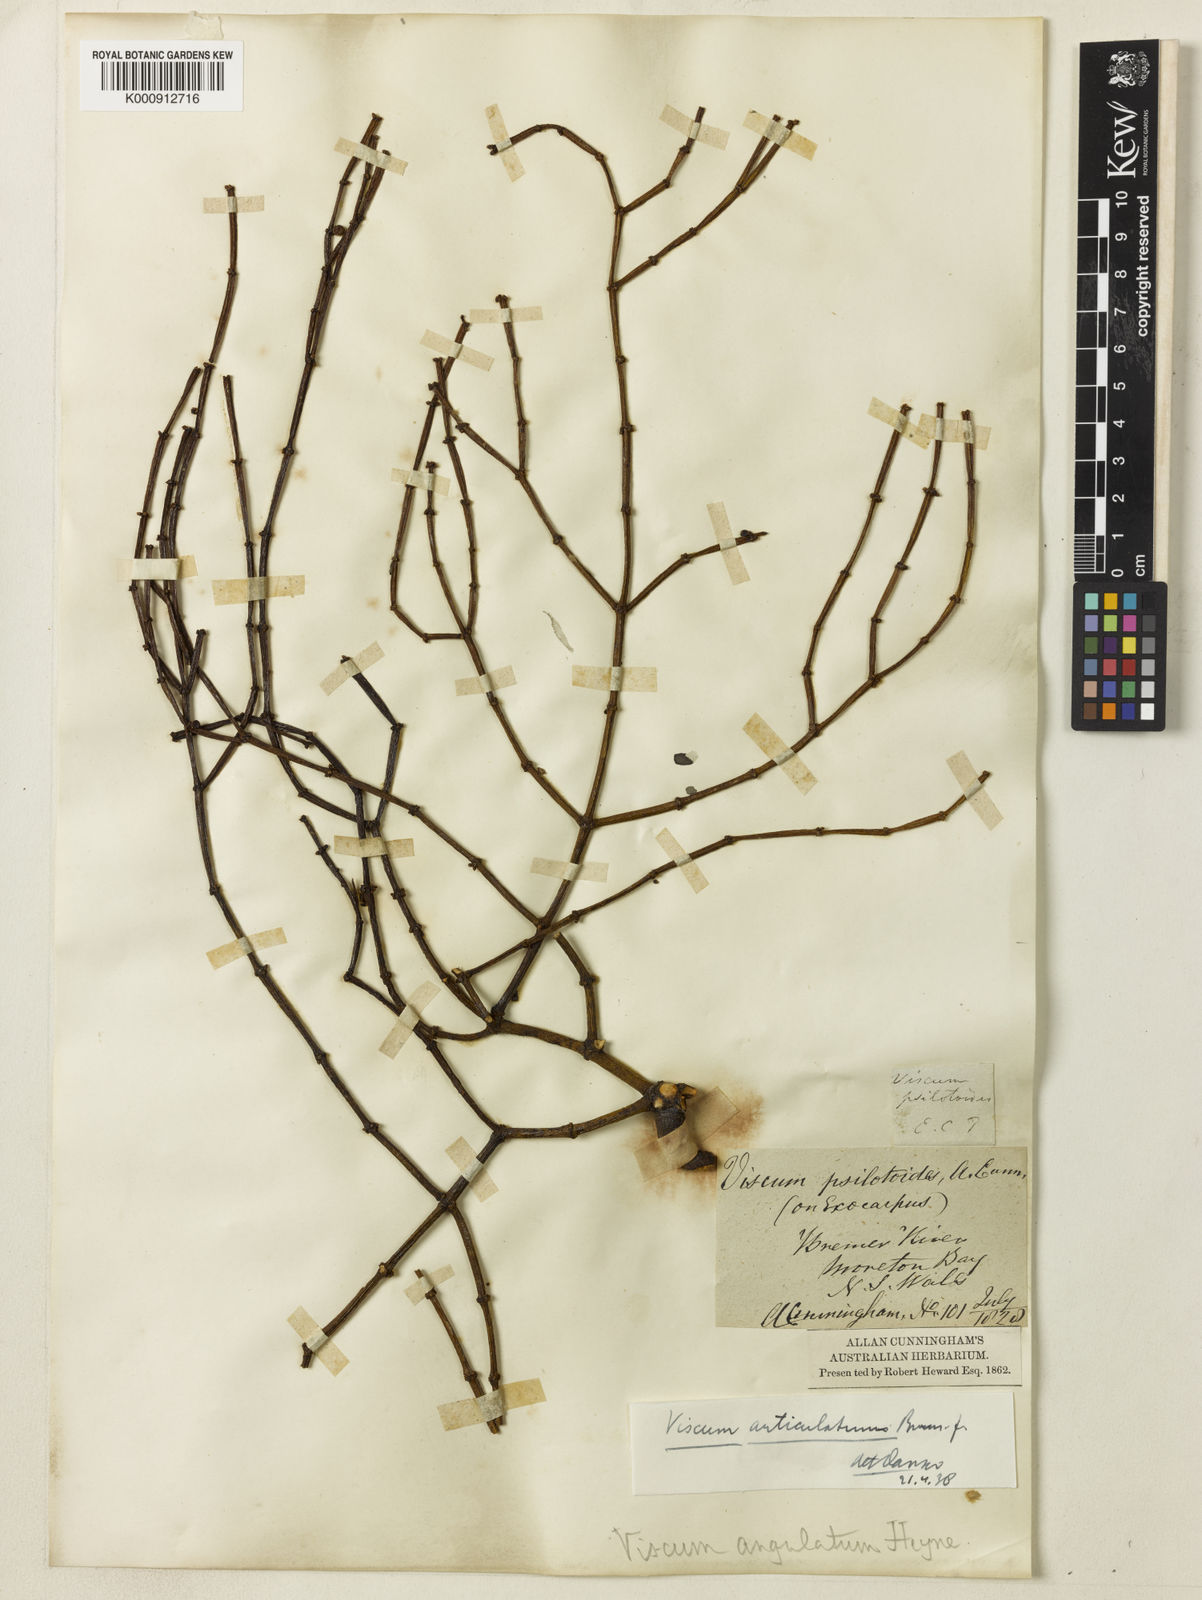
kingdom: Plantae
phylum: Tracheophyta
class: Magnoliopsida
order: Santalales
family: Viscaceae
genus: Viscum
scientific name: Viscum articulatum
